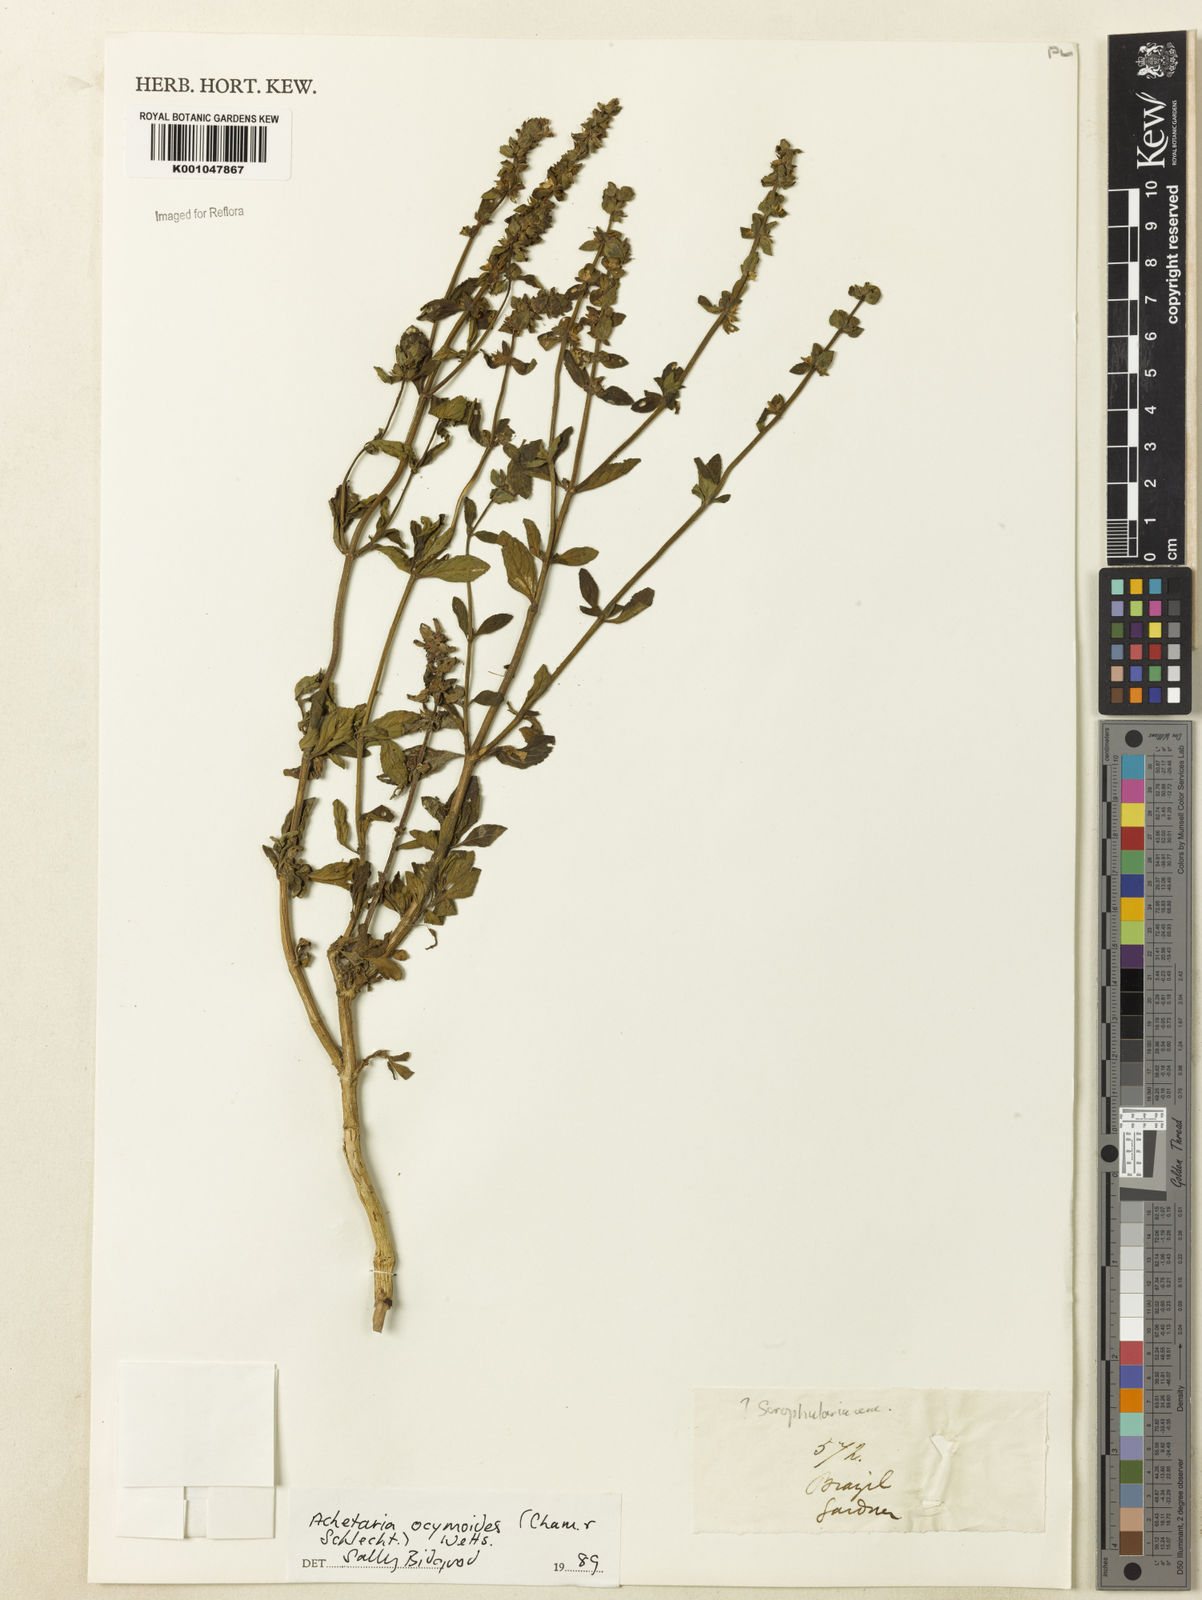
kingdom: Plantae
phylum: Tracheophyta
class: Magnoliopsida
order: Lamiales
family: Plantaginaceae
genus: Matourea
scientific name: Matourea ocymoides
